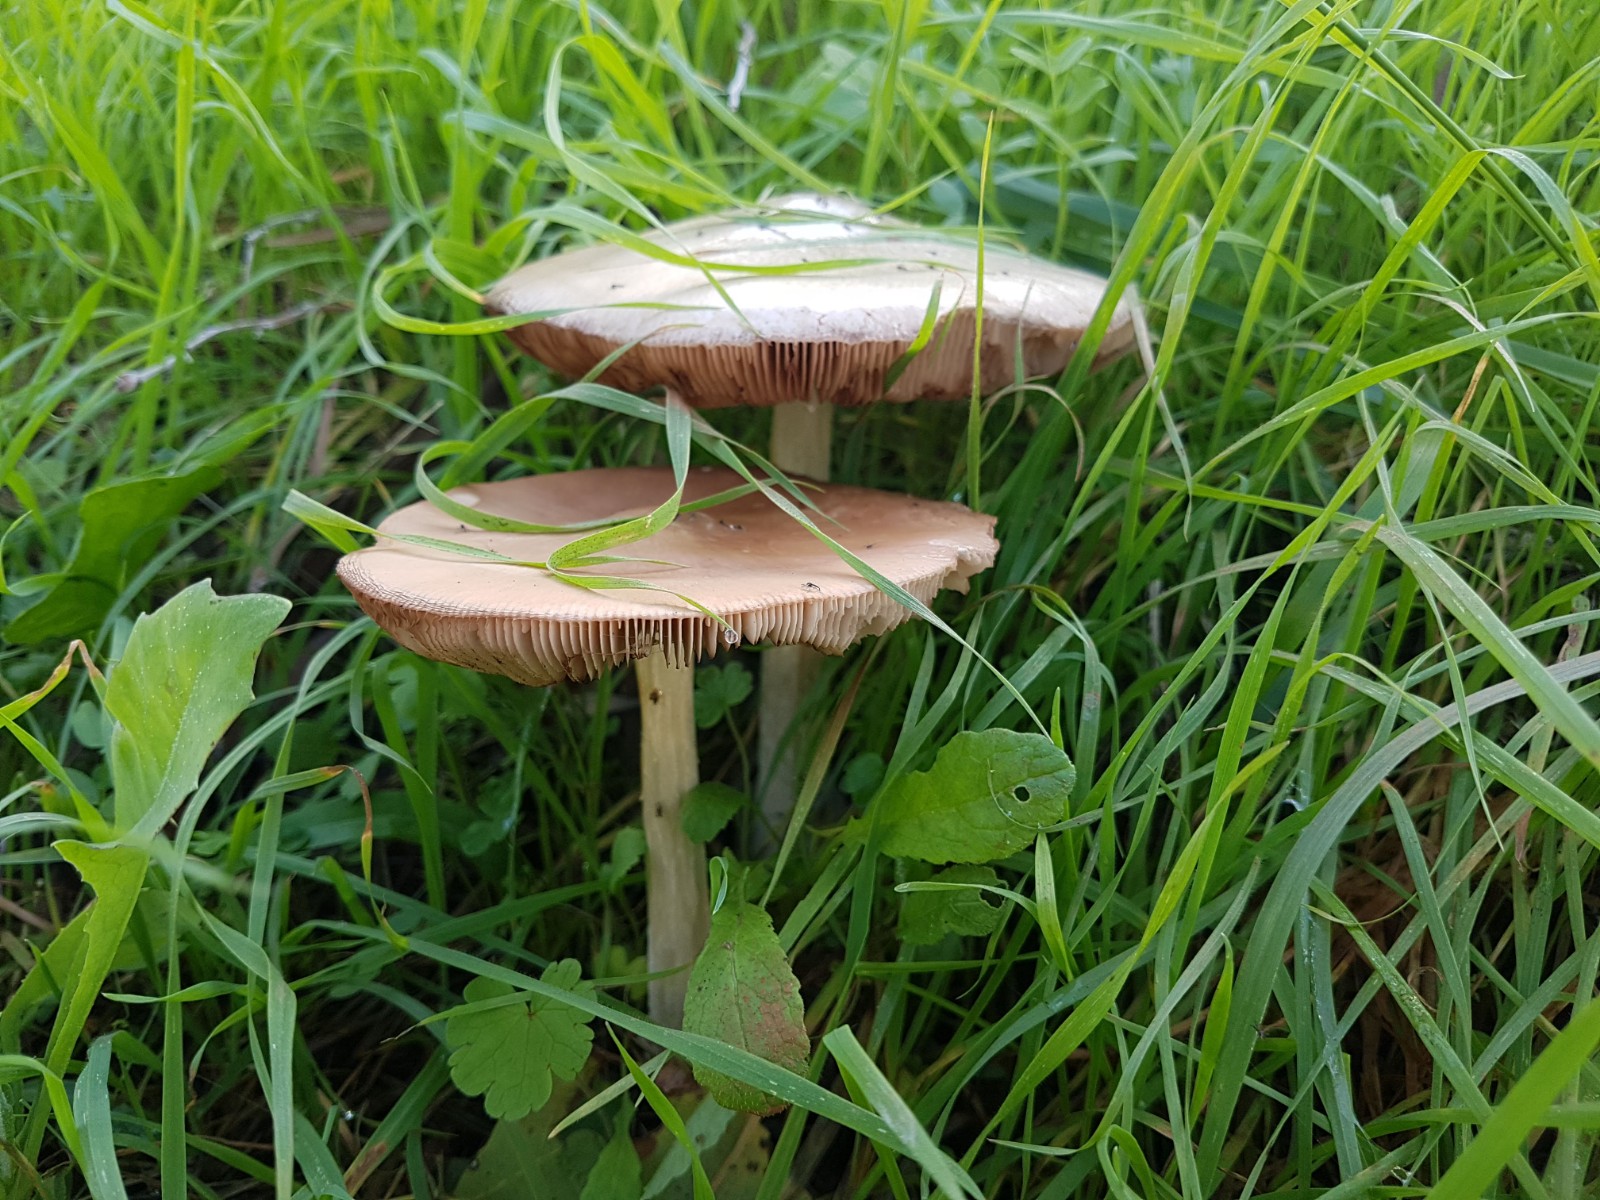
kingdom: Fungi
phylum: Basidiomycota
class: Agaricomycetes
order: Agaricales
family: Pluteaceae
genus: Volvopluteus
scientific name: Volvopluteus gloiocephalus
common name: høj posesvamp
